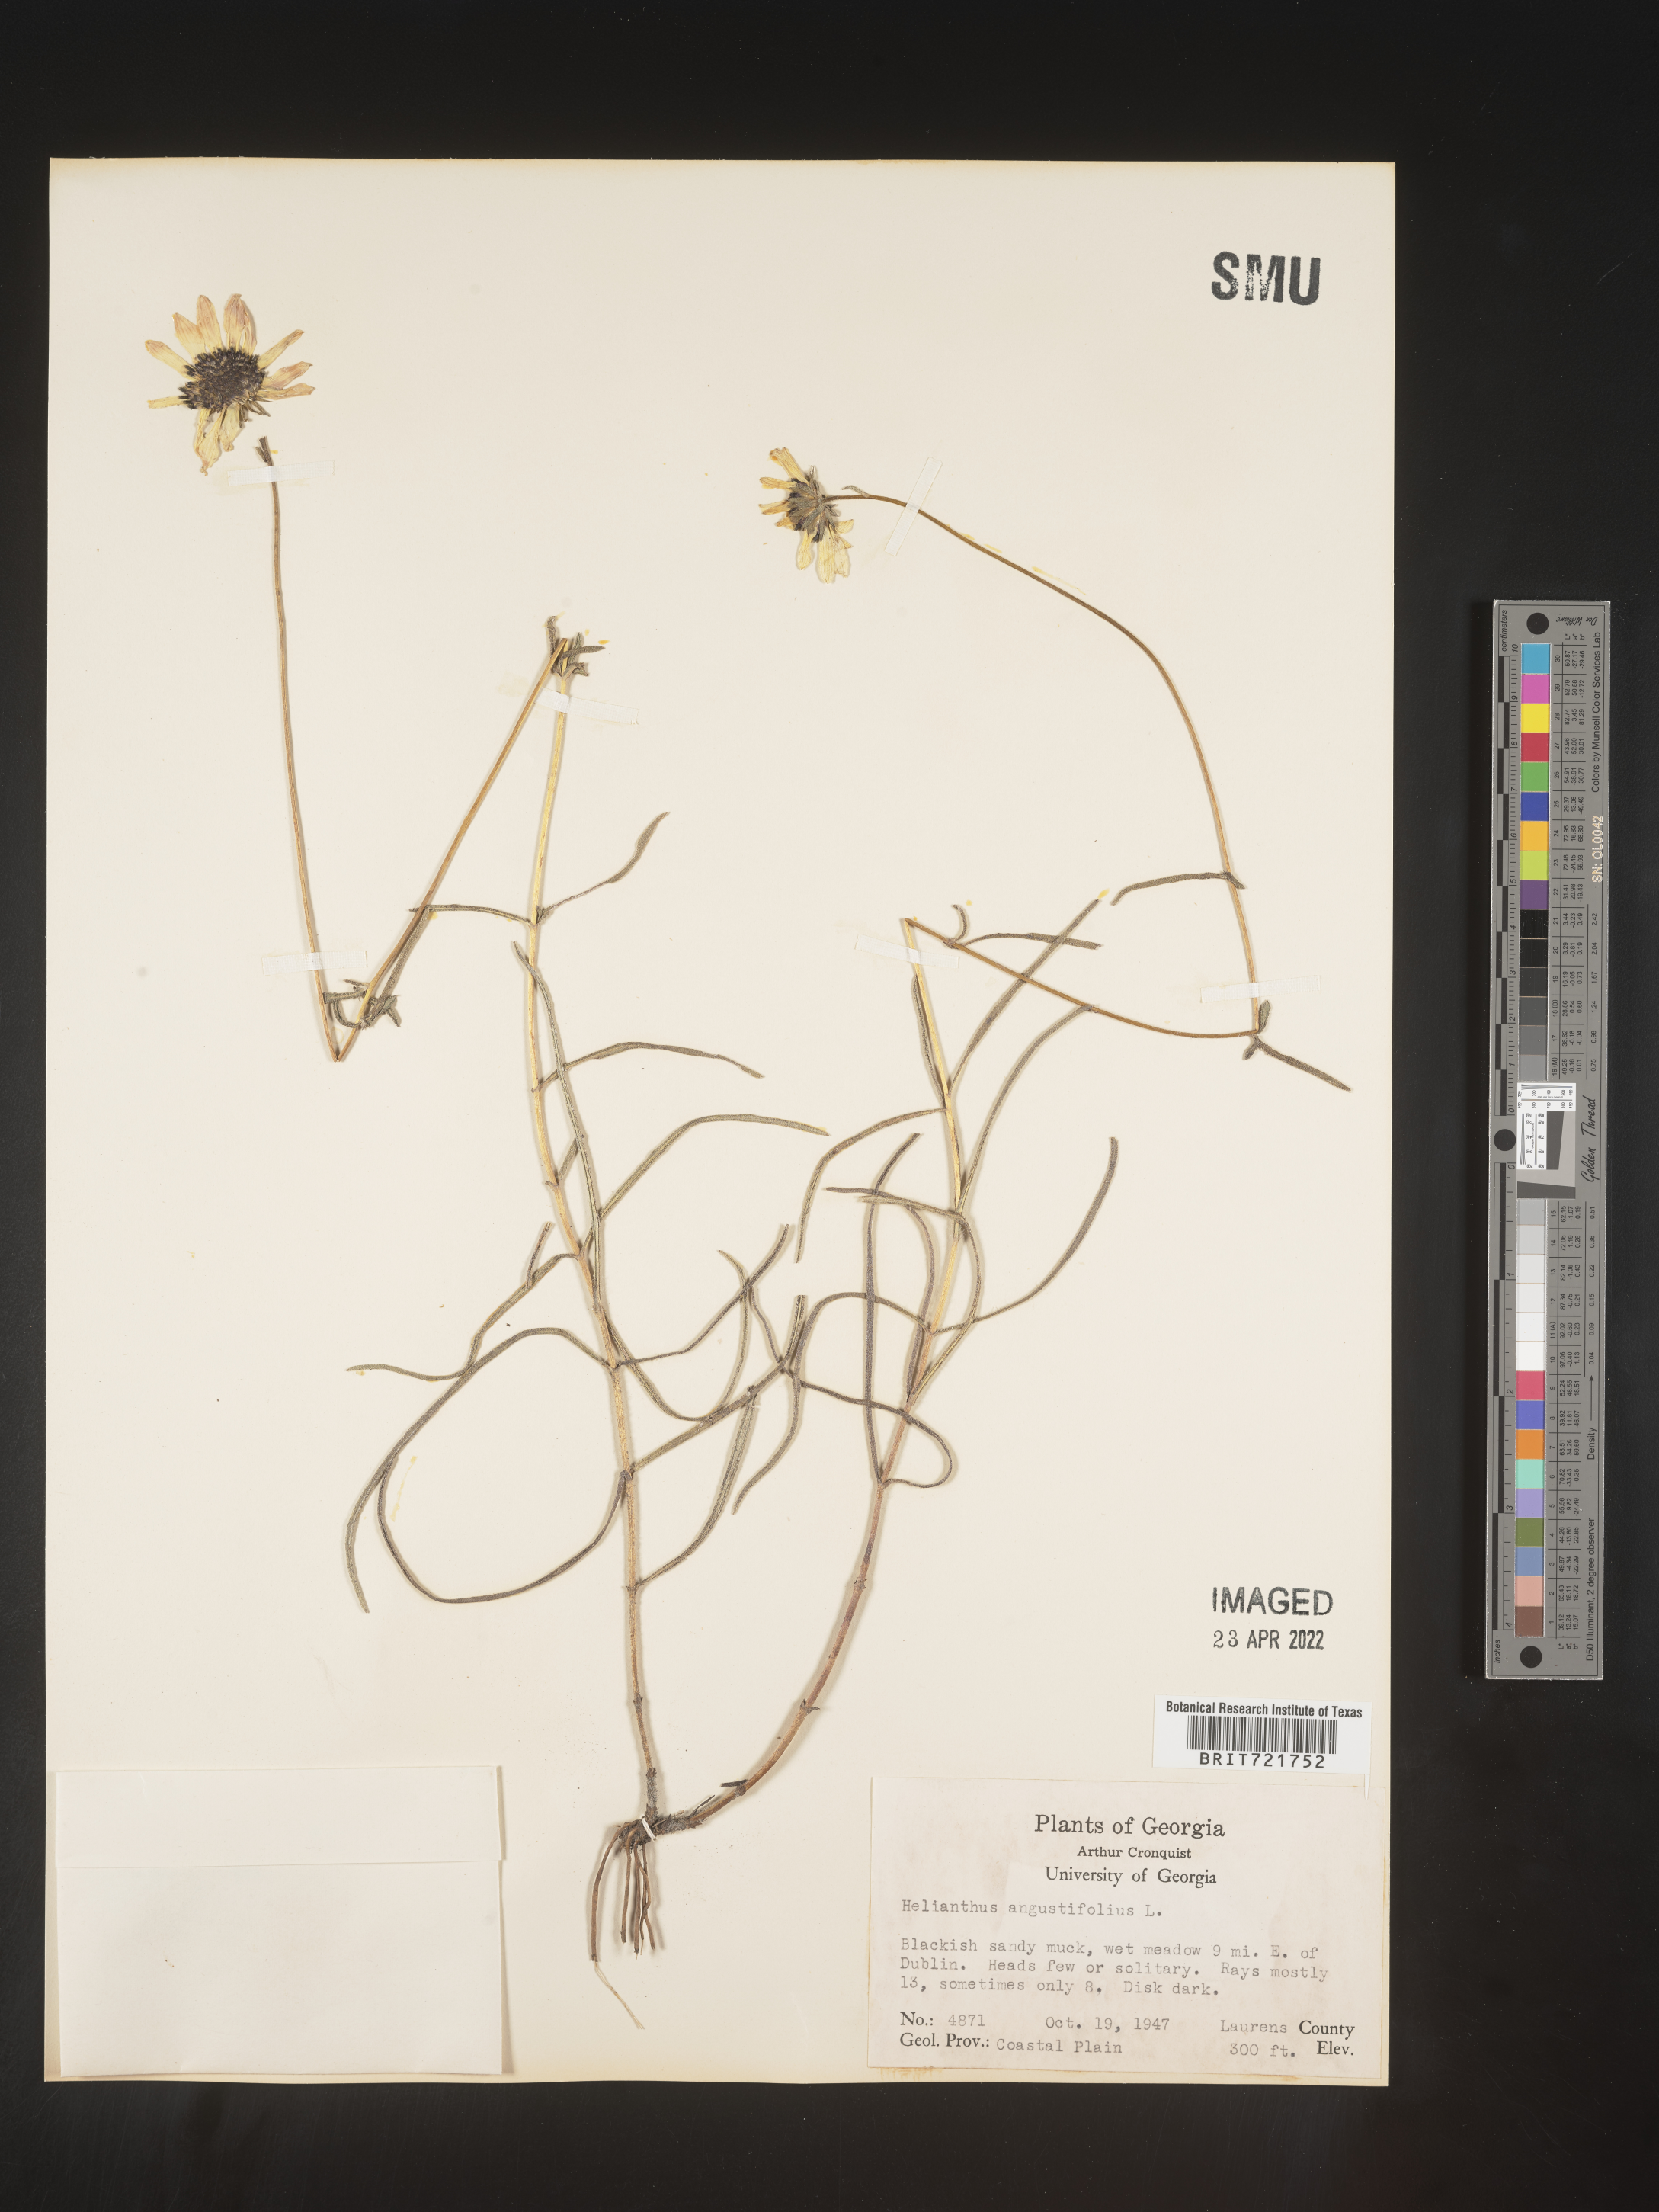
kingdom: Plantae
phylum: Tracheophyta
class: Magnoliopsida
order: Asterales
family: Asteraceae
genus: Helianthus
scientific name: Helianthus angustifolius
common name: Swamp sunflower
